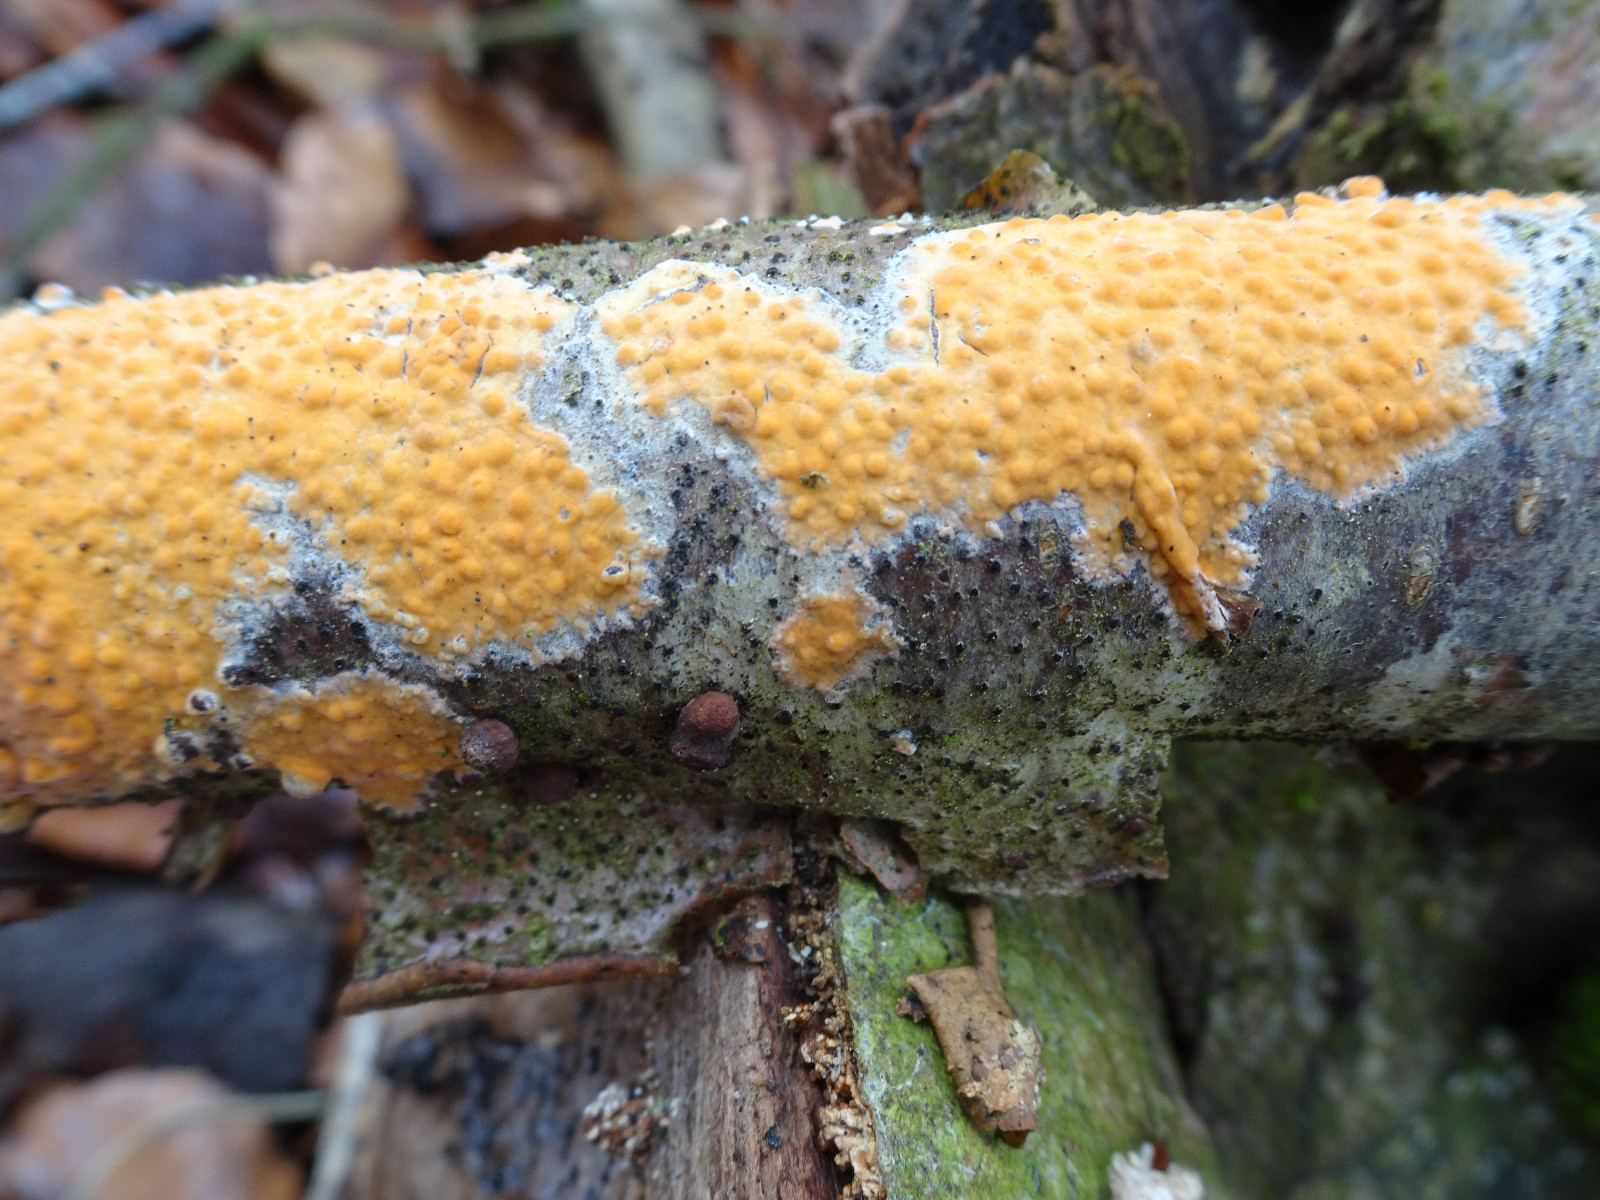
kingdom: Fungi
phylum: Basidiomycota
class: Agaricomycetes
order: Russulales
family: Peniophoraceae
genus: Peniophora
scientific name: Peniophora incarnata
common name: laksefarvet voksskind
